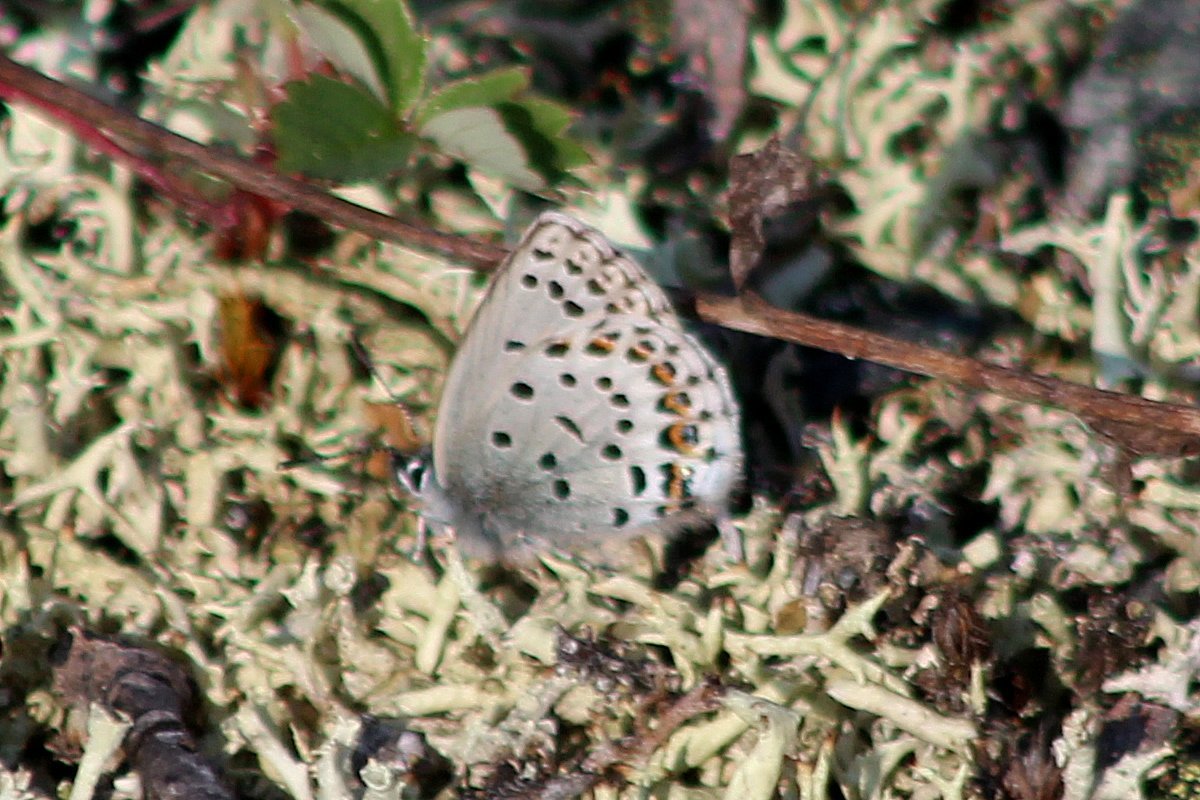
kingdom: Animalia
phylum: Arthropoda
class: Insecta
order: Lepidoptera
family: Lycaenidae
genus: Lycaeides
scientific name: Lycaeides idas
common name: Northern Blue
